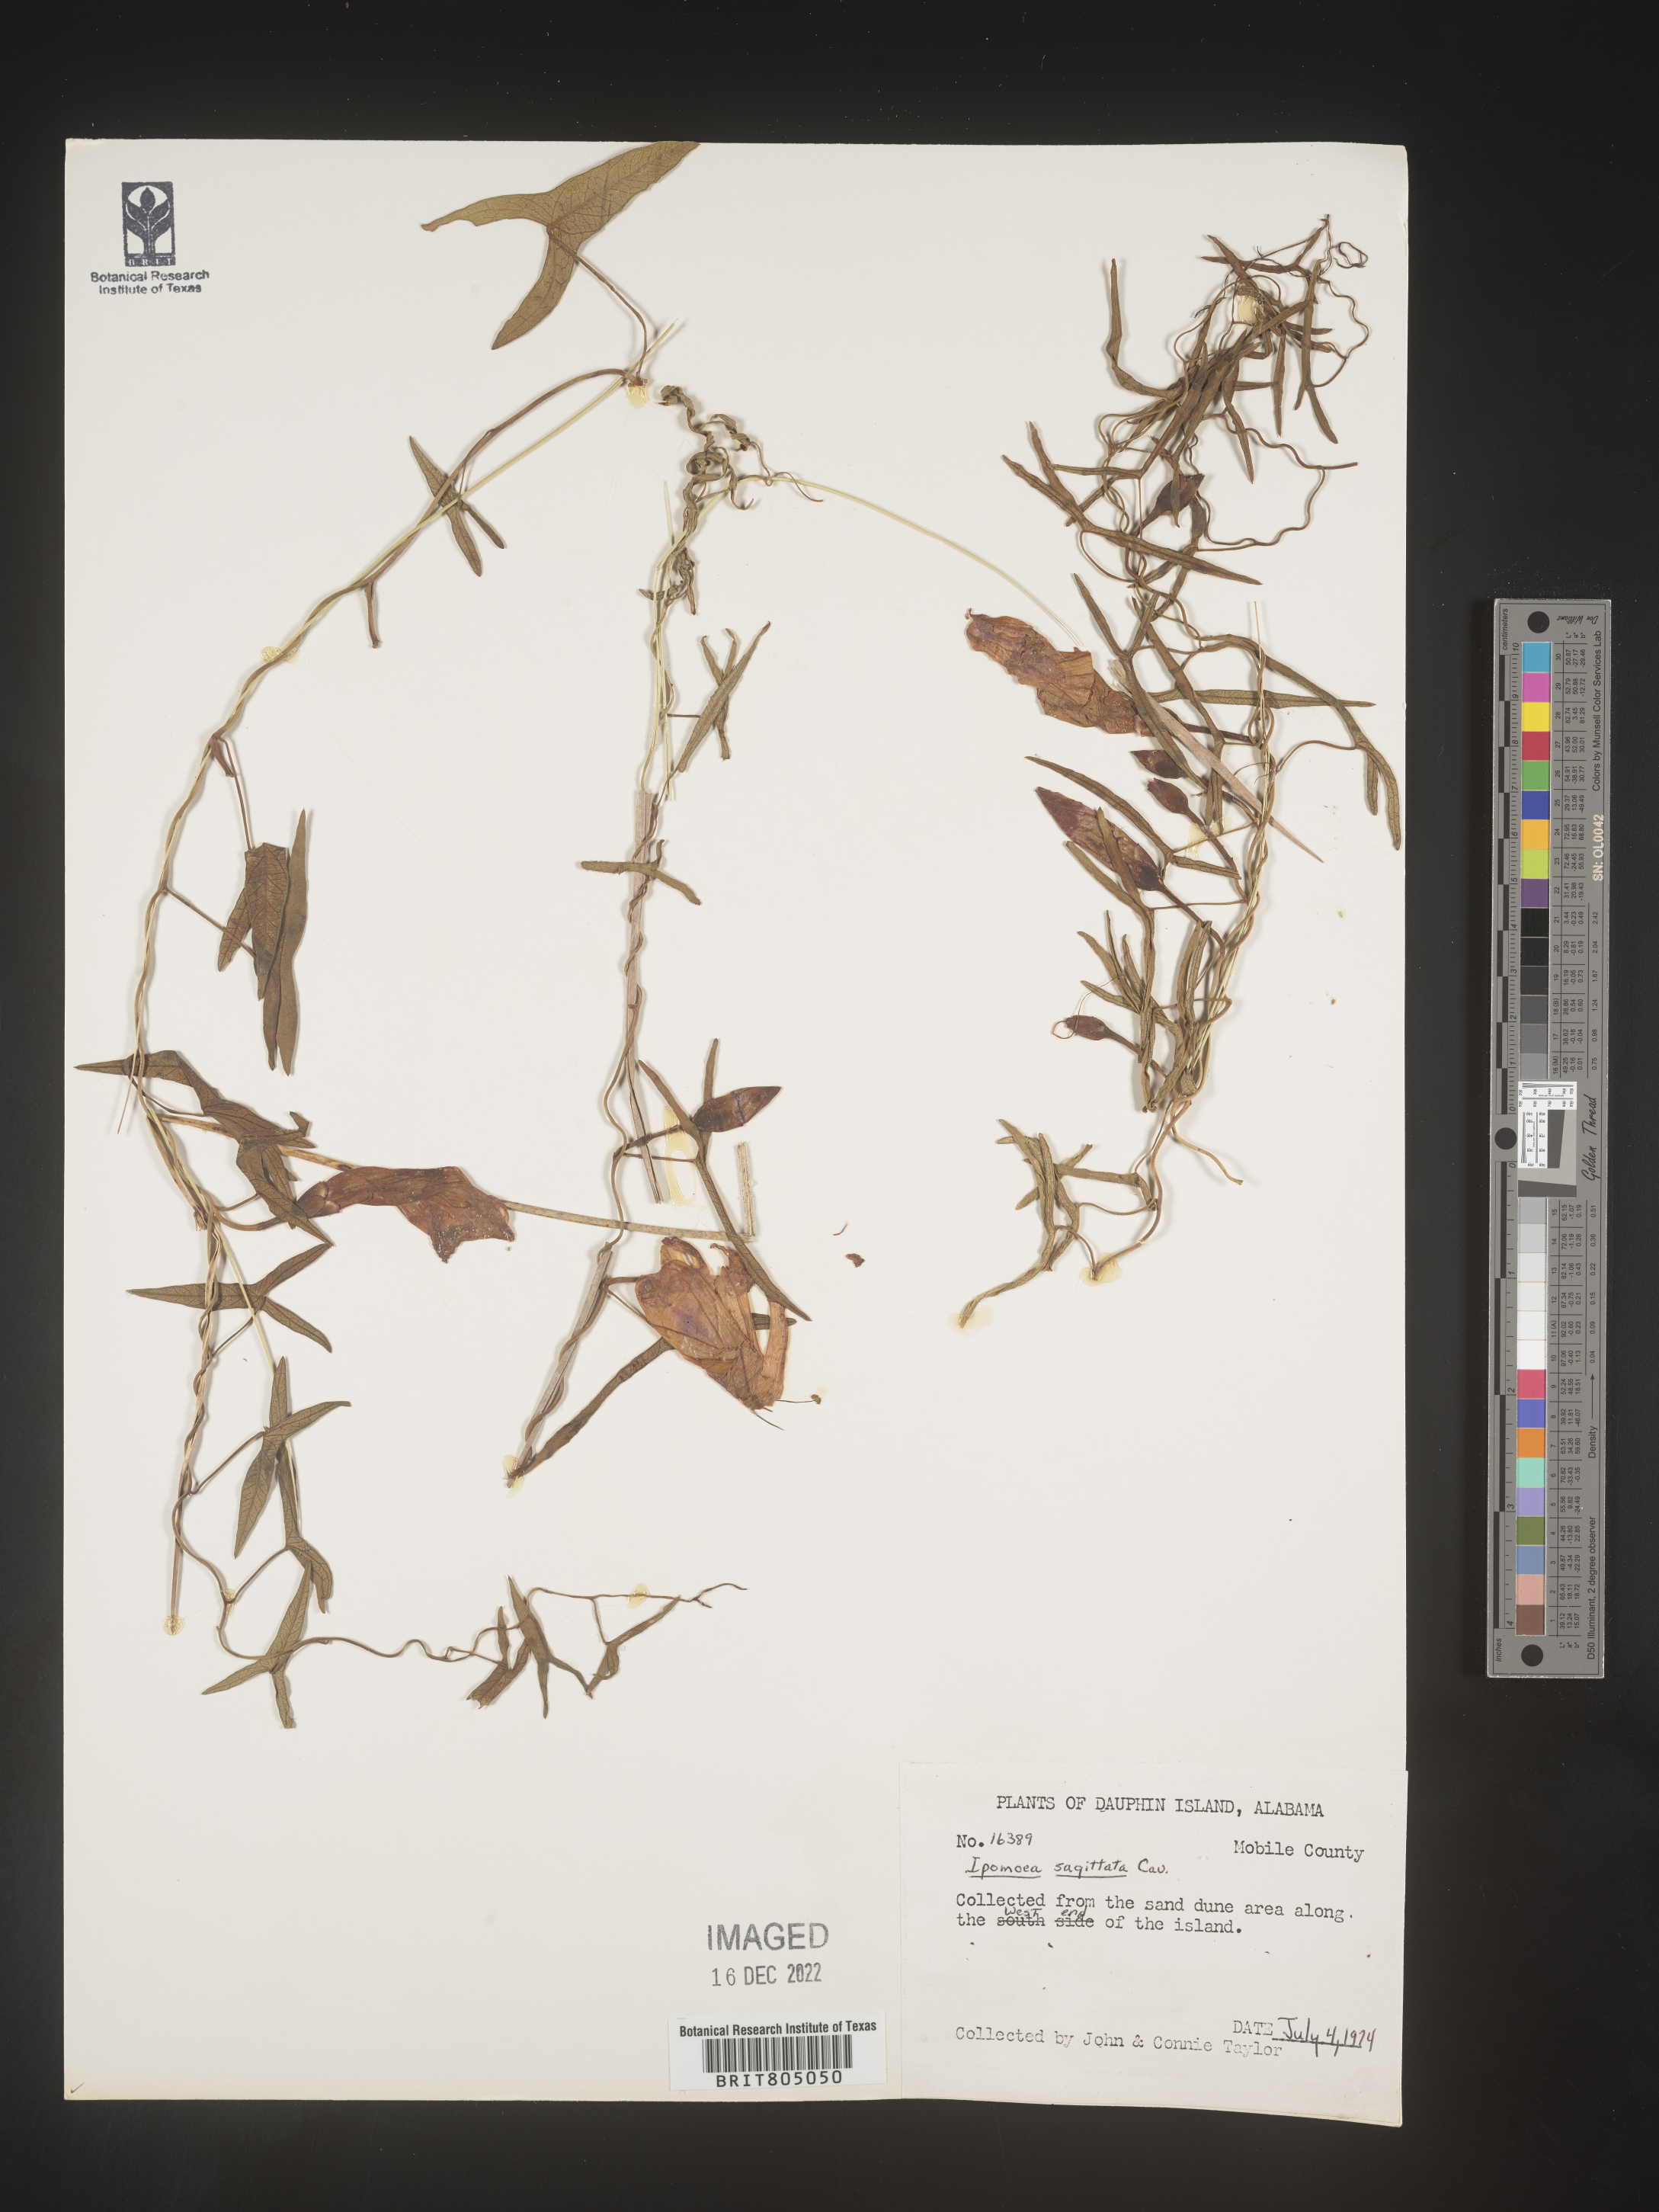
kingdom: Plantae
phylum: Tracheophyta
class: Magnoliopsida
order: Solanales
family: Convolvulaceae
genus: Ipomoea
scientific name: Ipomoea sinensis
